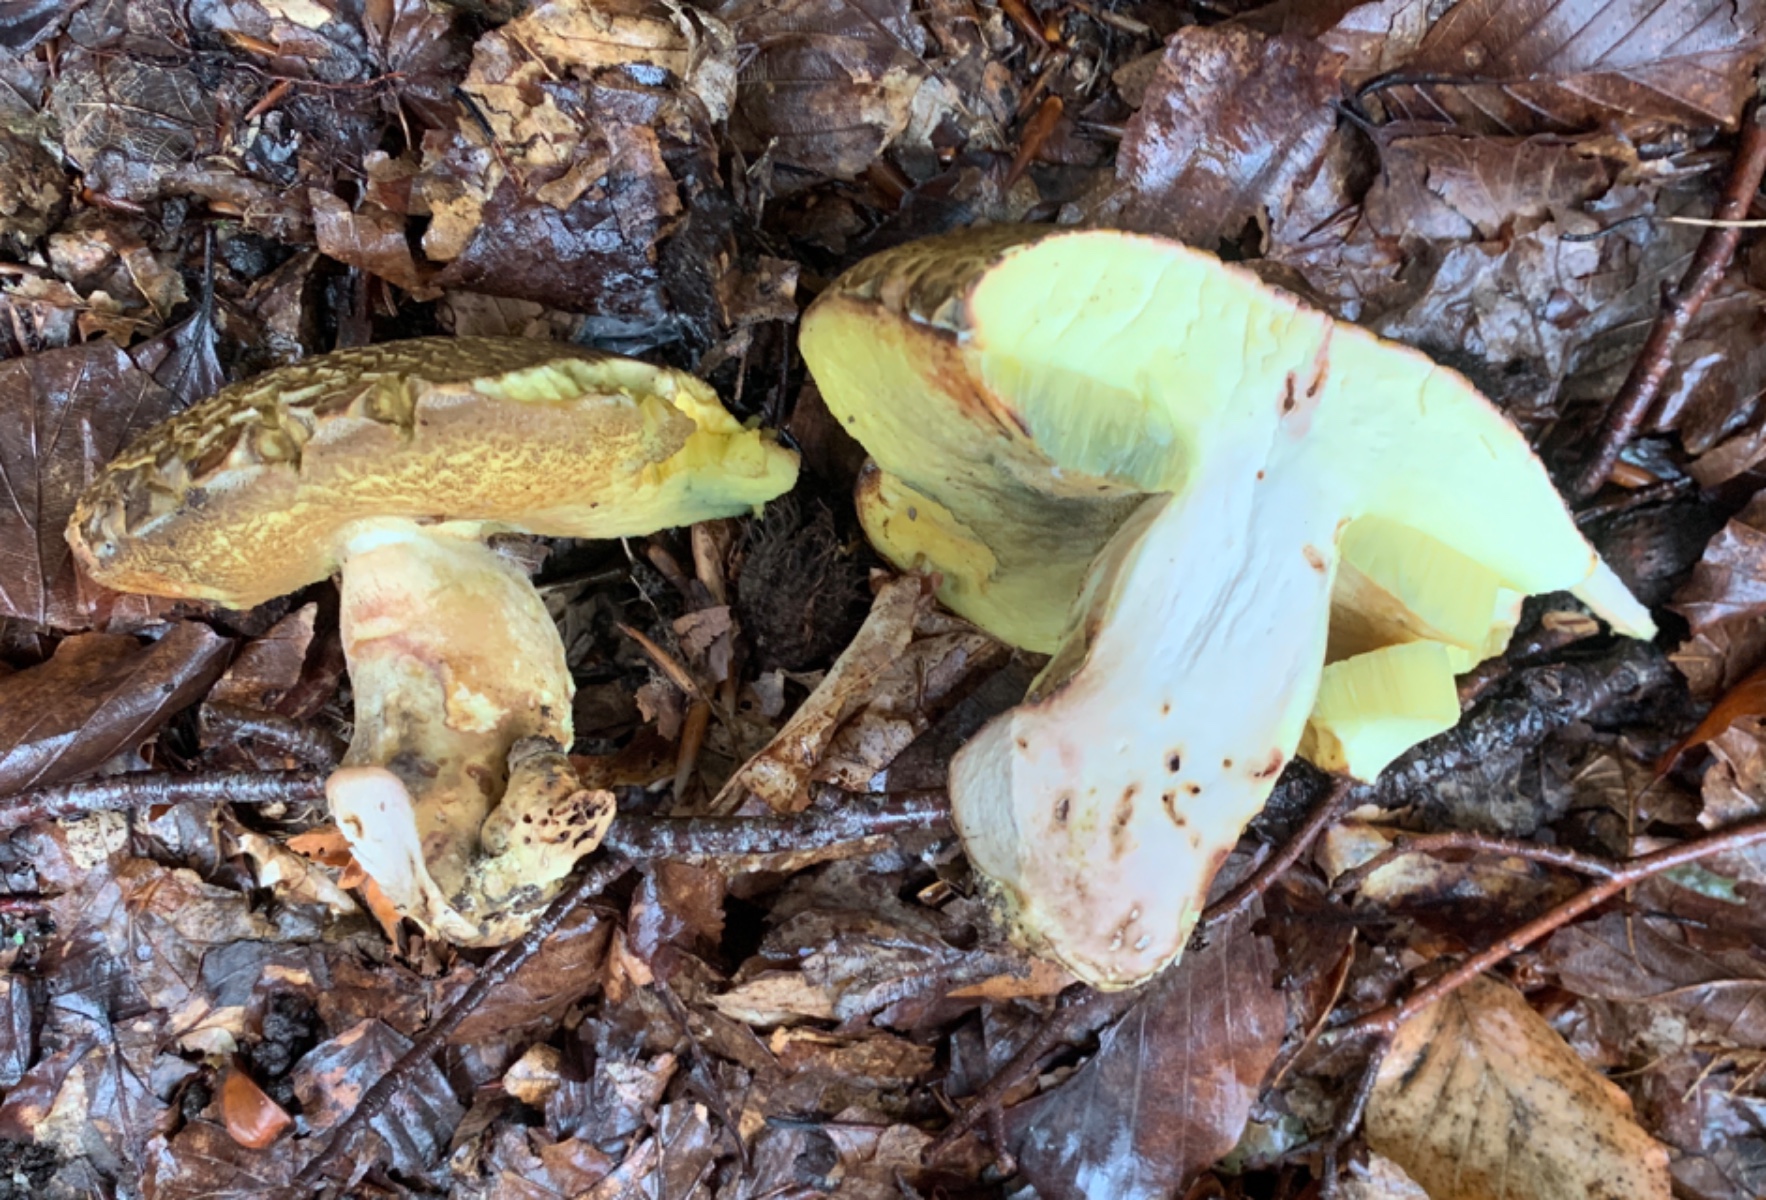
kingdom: Fungi
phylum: Basidiomycota
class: Agaricomycetes
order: Boletales
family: Boletaceae
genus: Butyriboletus
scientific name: Butyriboletus appendiculatus
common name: tenstokket rørhat
